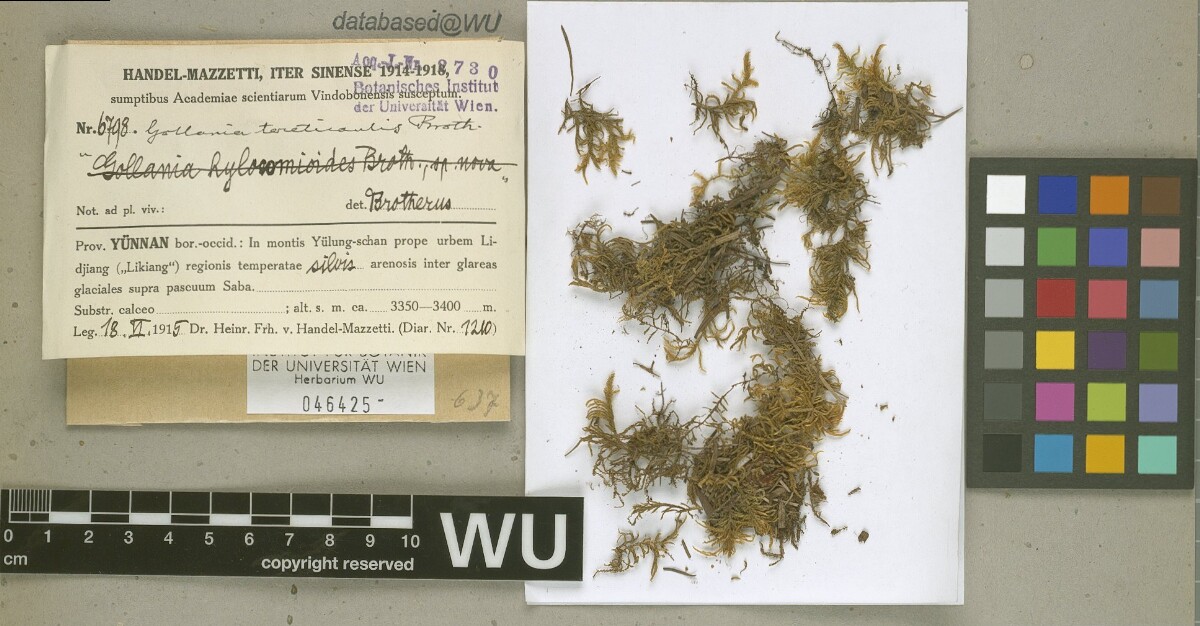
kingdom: Plantae
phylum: Bryophyta
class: Bryopsida
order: Hypnales
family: Hypnaceae
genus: Gollania
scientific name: Gollania tereticaulis
